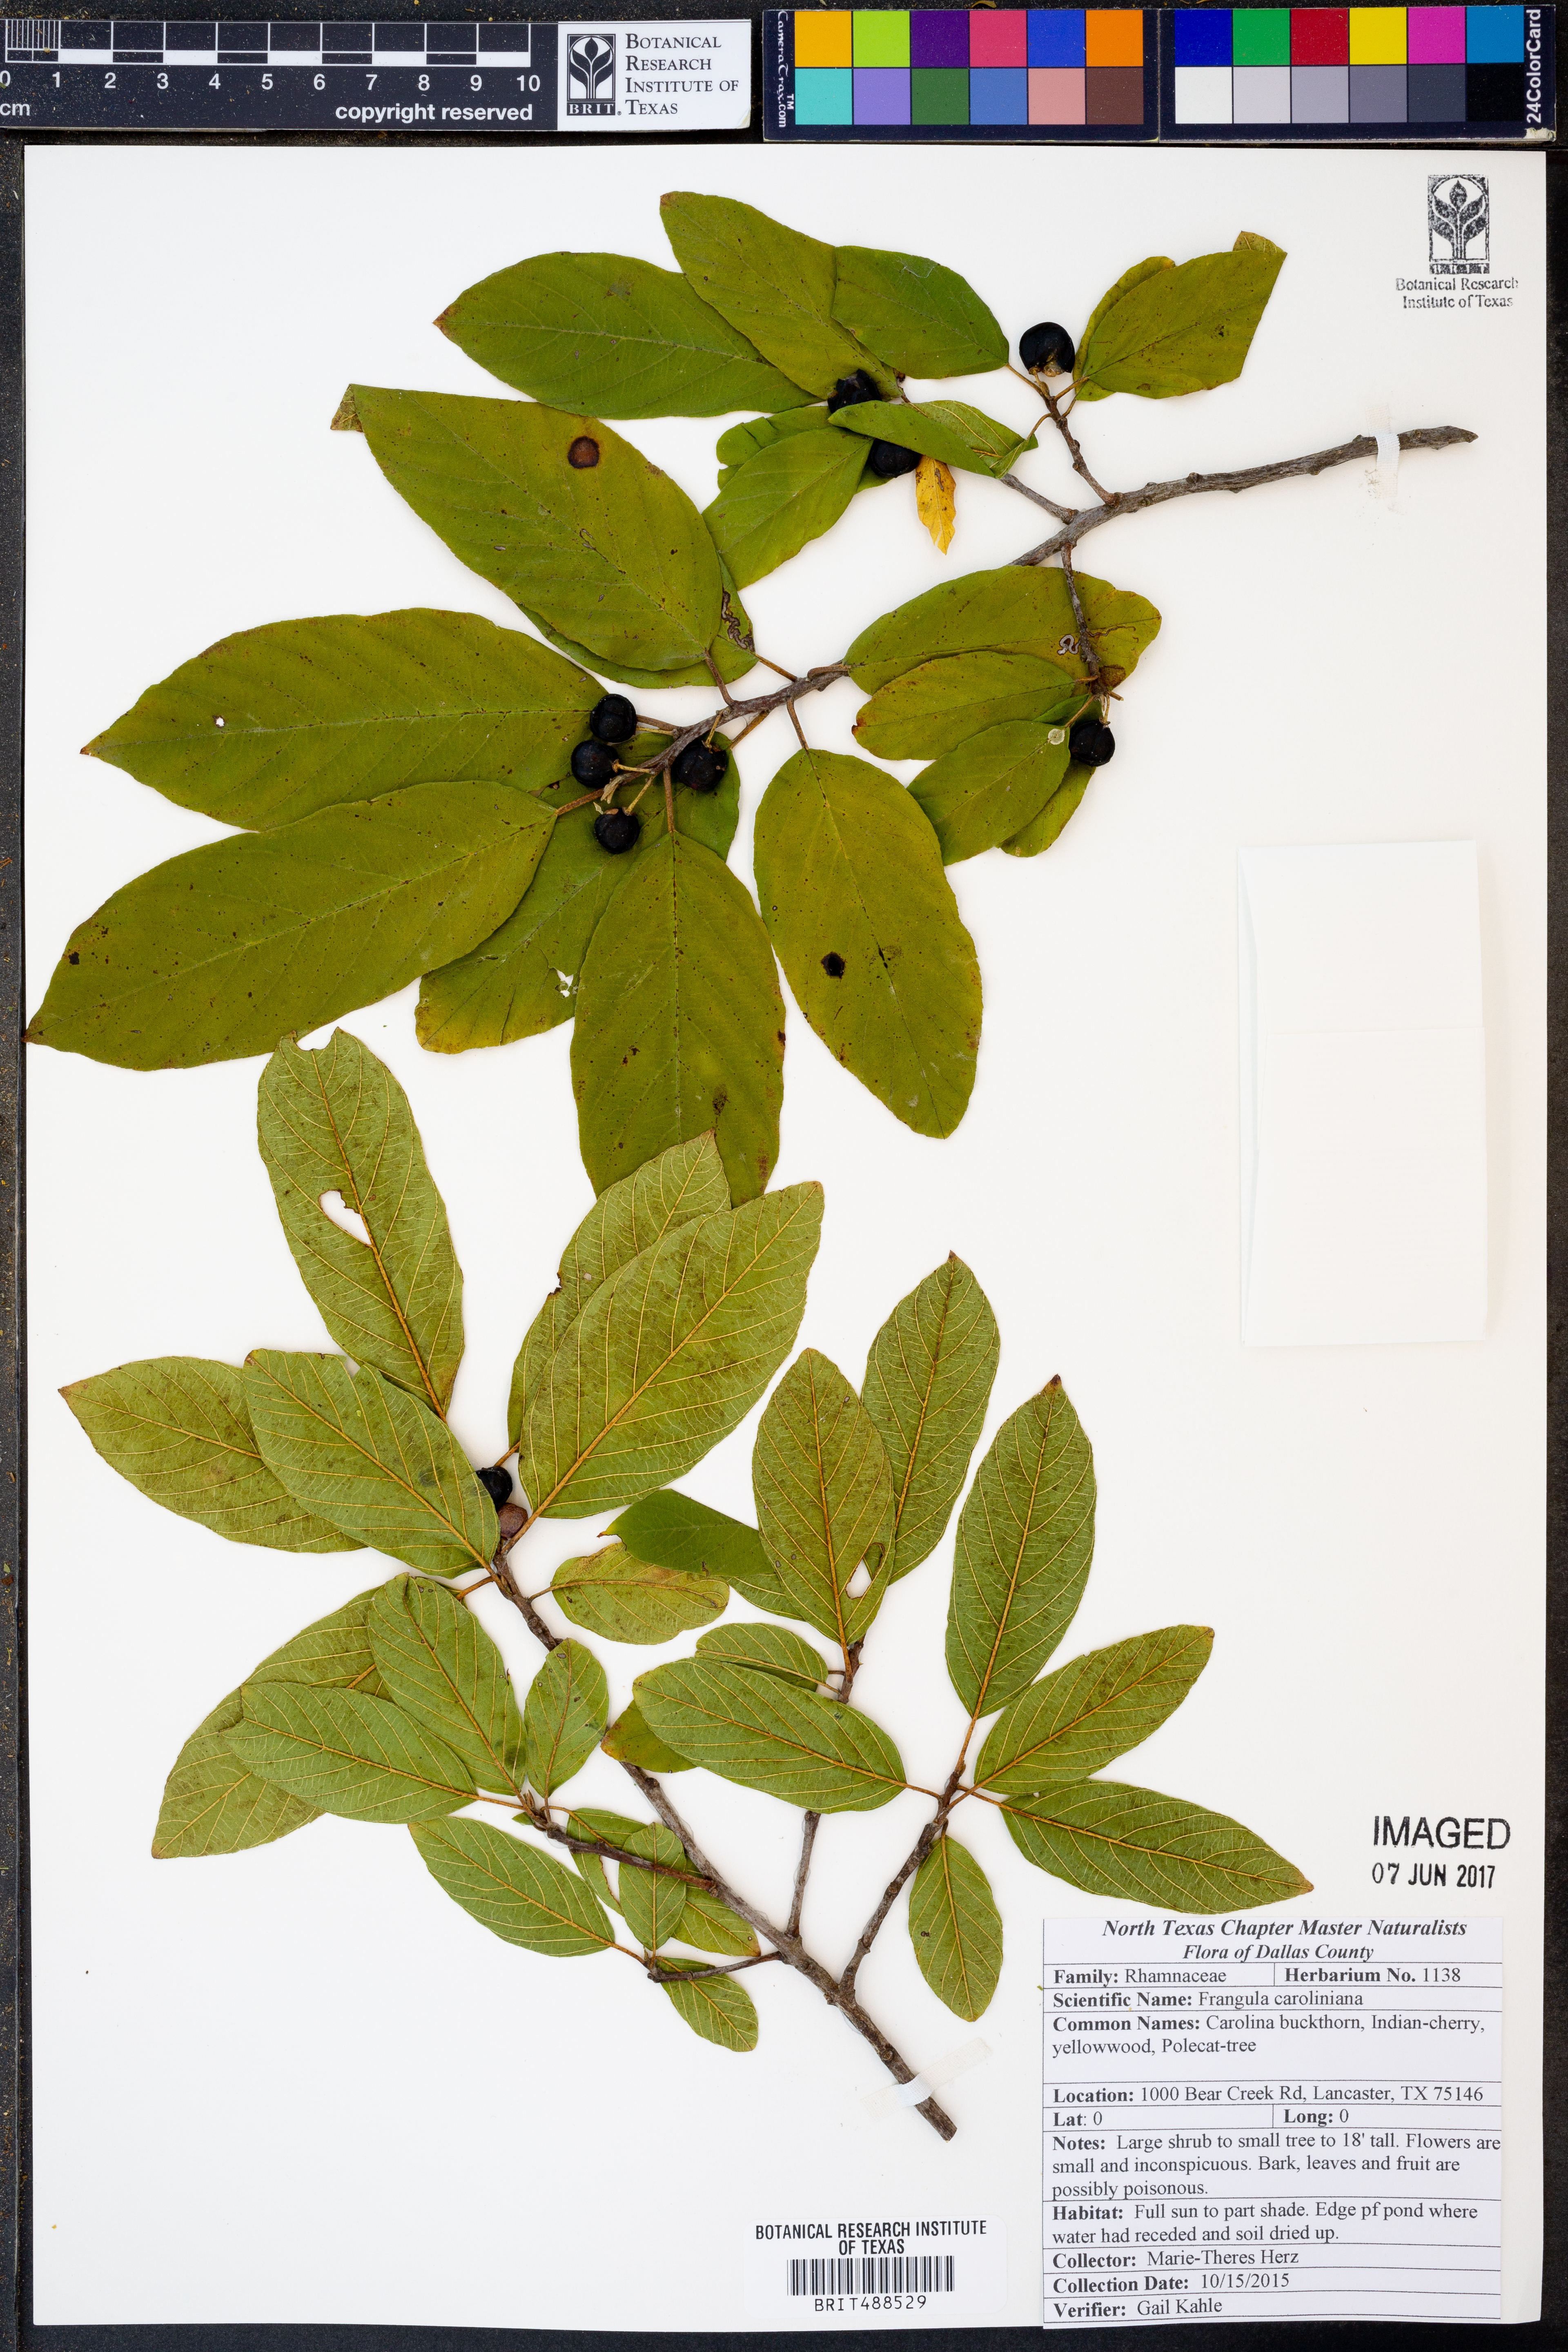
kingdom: Plantae
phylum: Tracheophyta
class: Magnoliopsida
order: Rosales
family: Rhamnaceae
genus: Frangula
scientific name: Frangula caroliniana
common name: Carolina buckthorn
